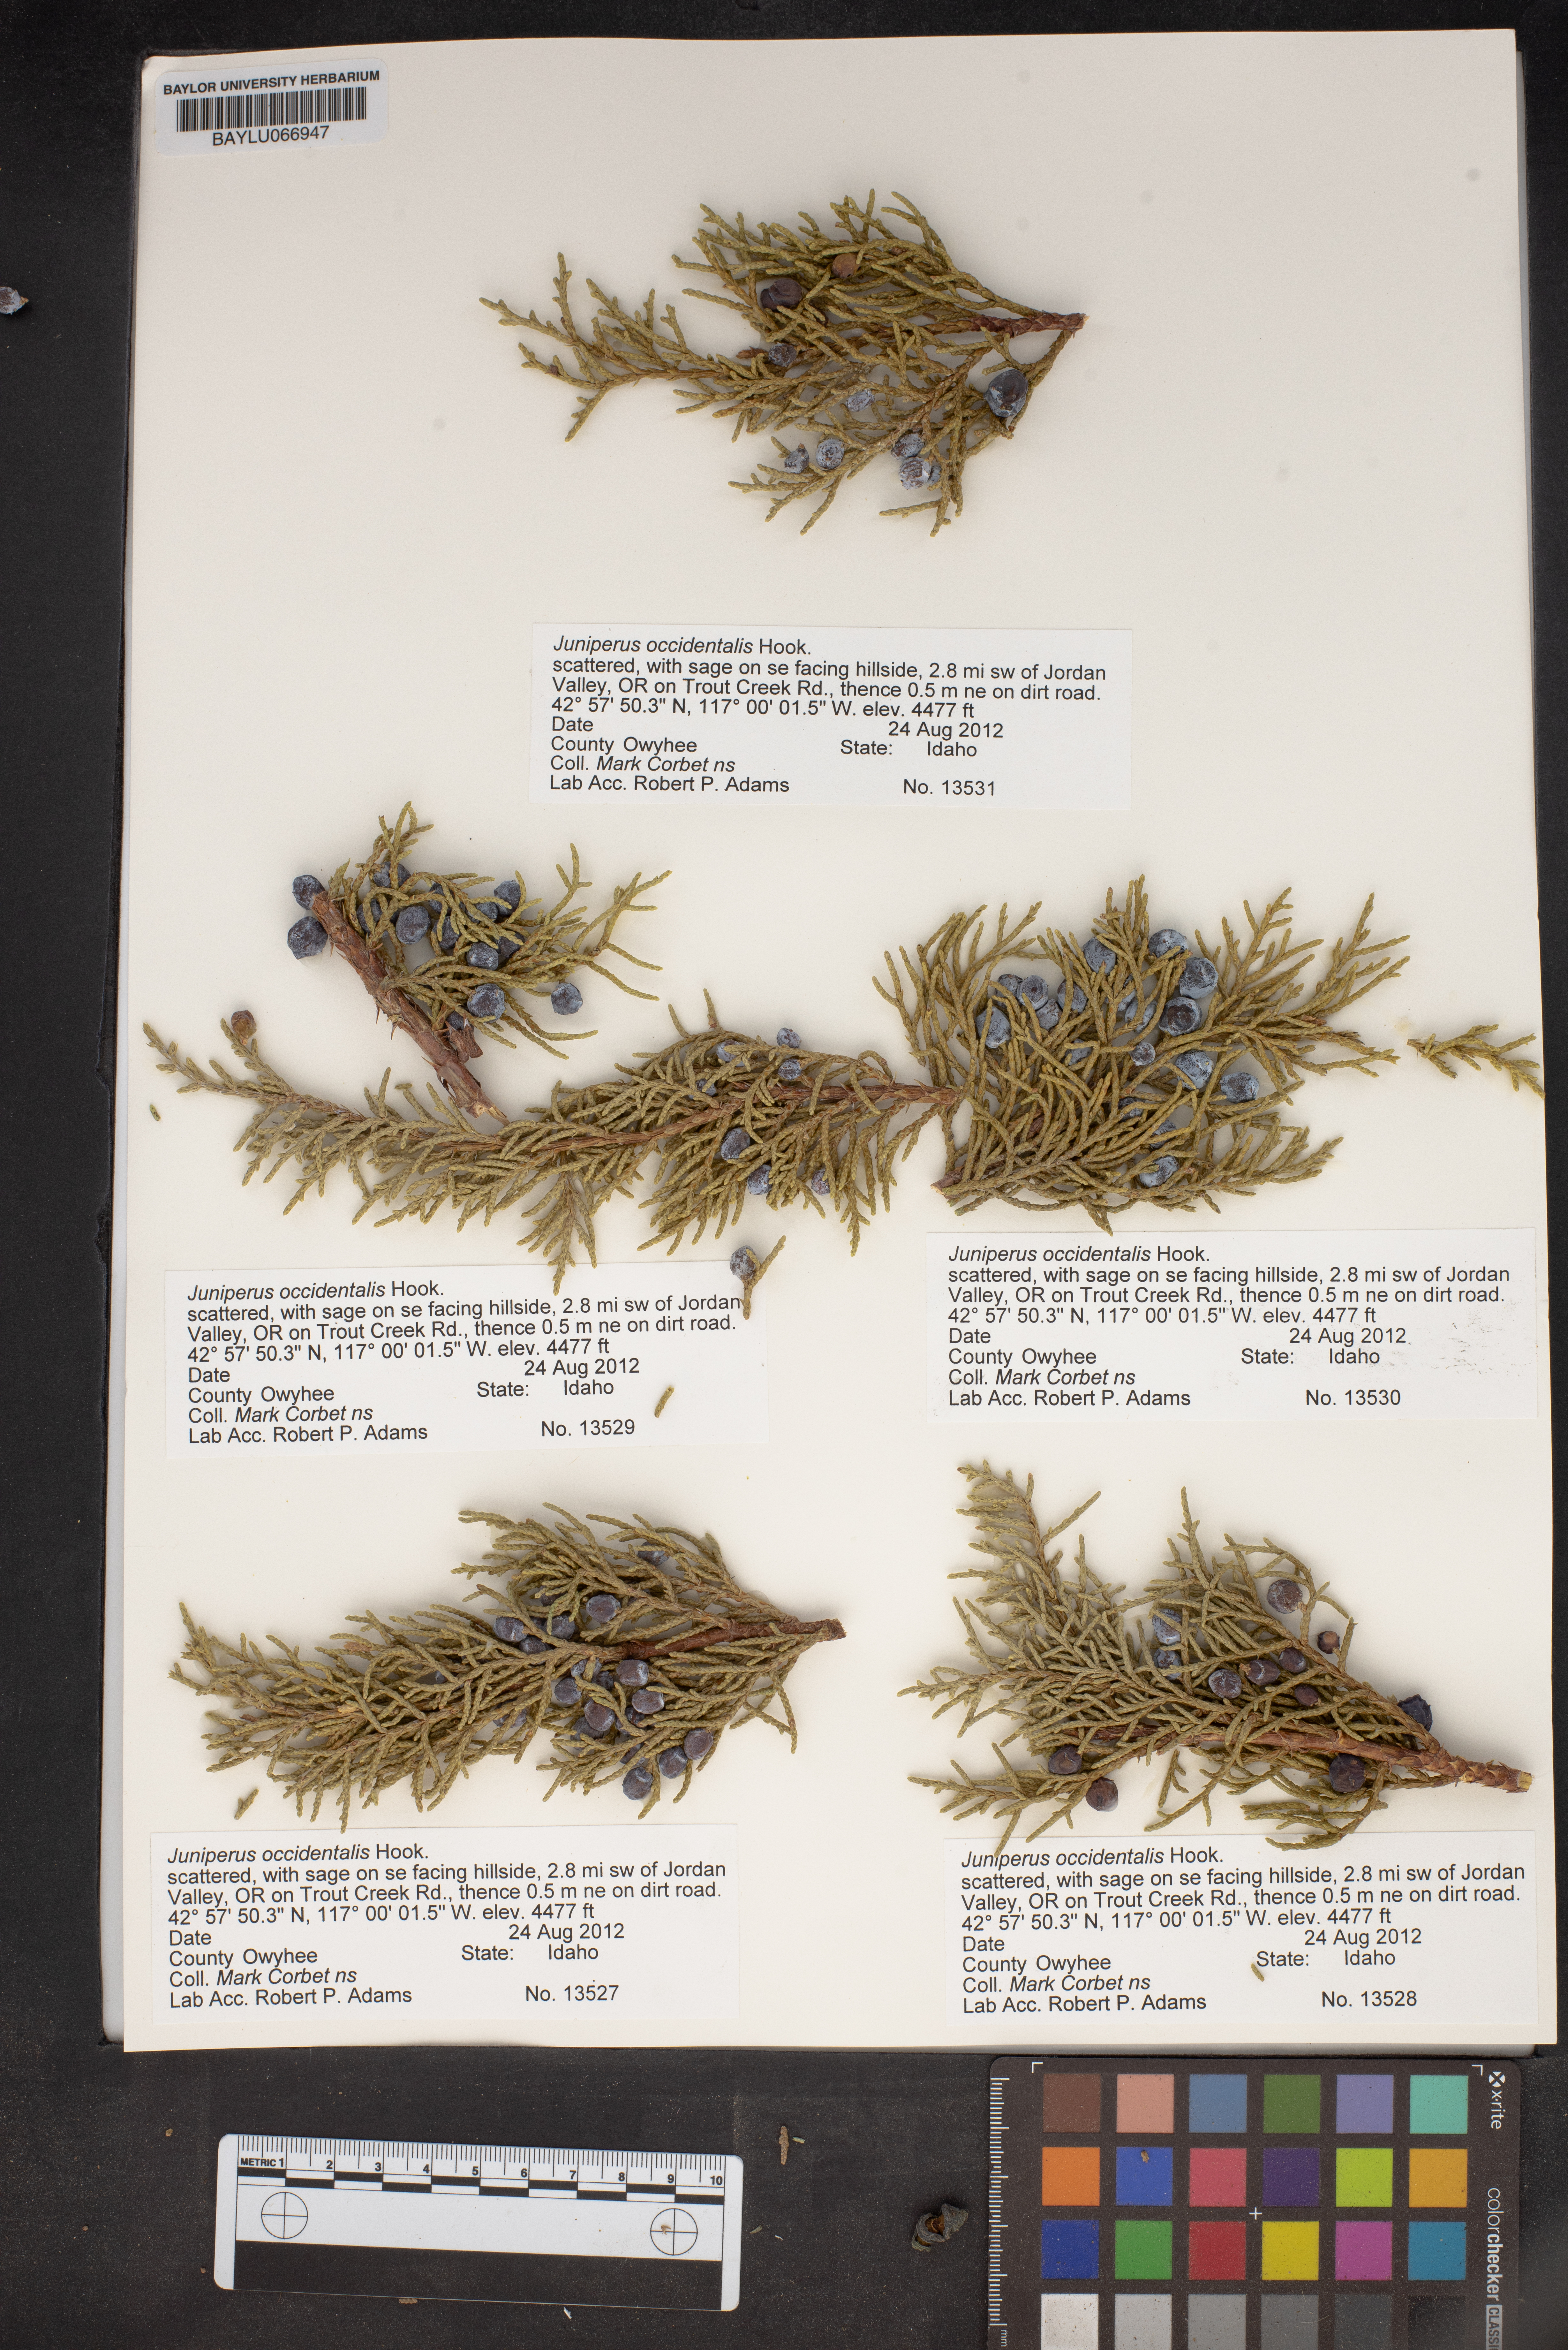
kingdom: Plantae
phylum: Tracheophyta
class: Pinopsida
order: Pinales
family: Cupressaceae
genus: Juniperus
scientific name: Juniperus occidentalis
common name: Western juniper
